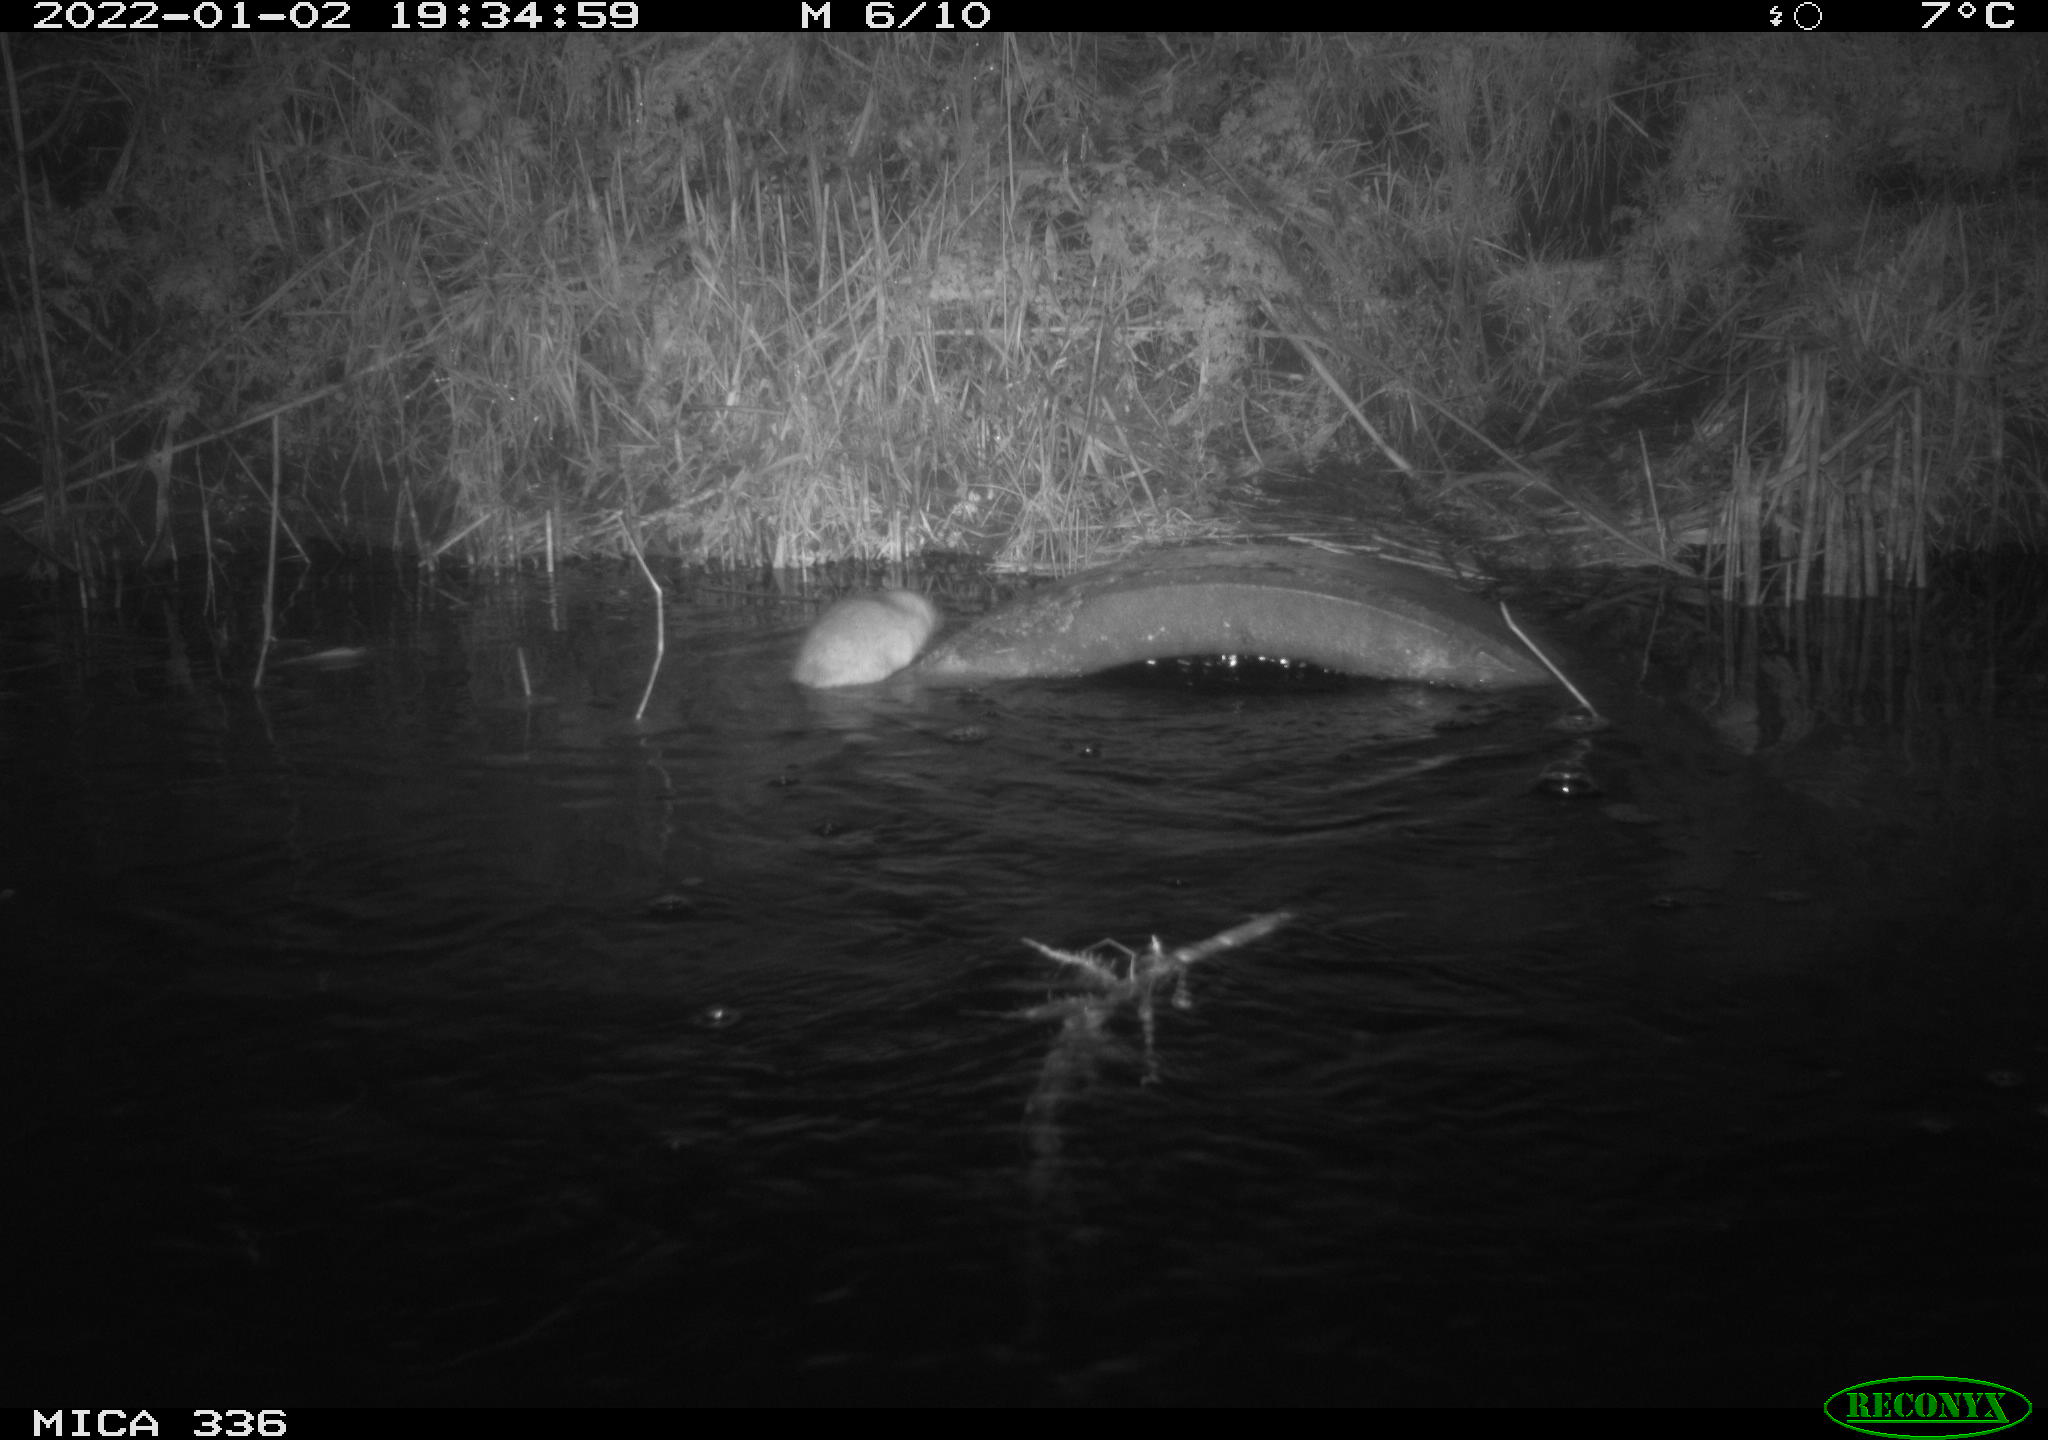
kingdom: Animalia
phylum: Chordata
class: Mammalia
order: Rodentia
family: Muridae
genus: Rattus
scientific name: Rattus norvegicus
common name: Brown rat
